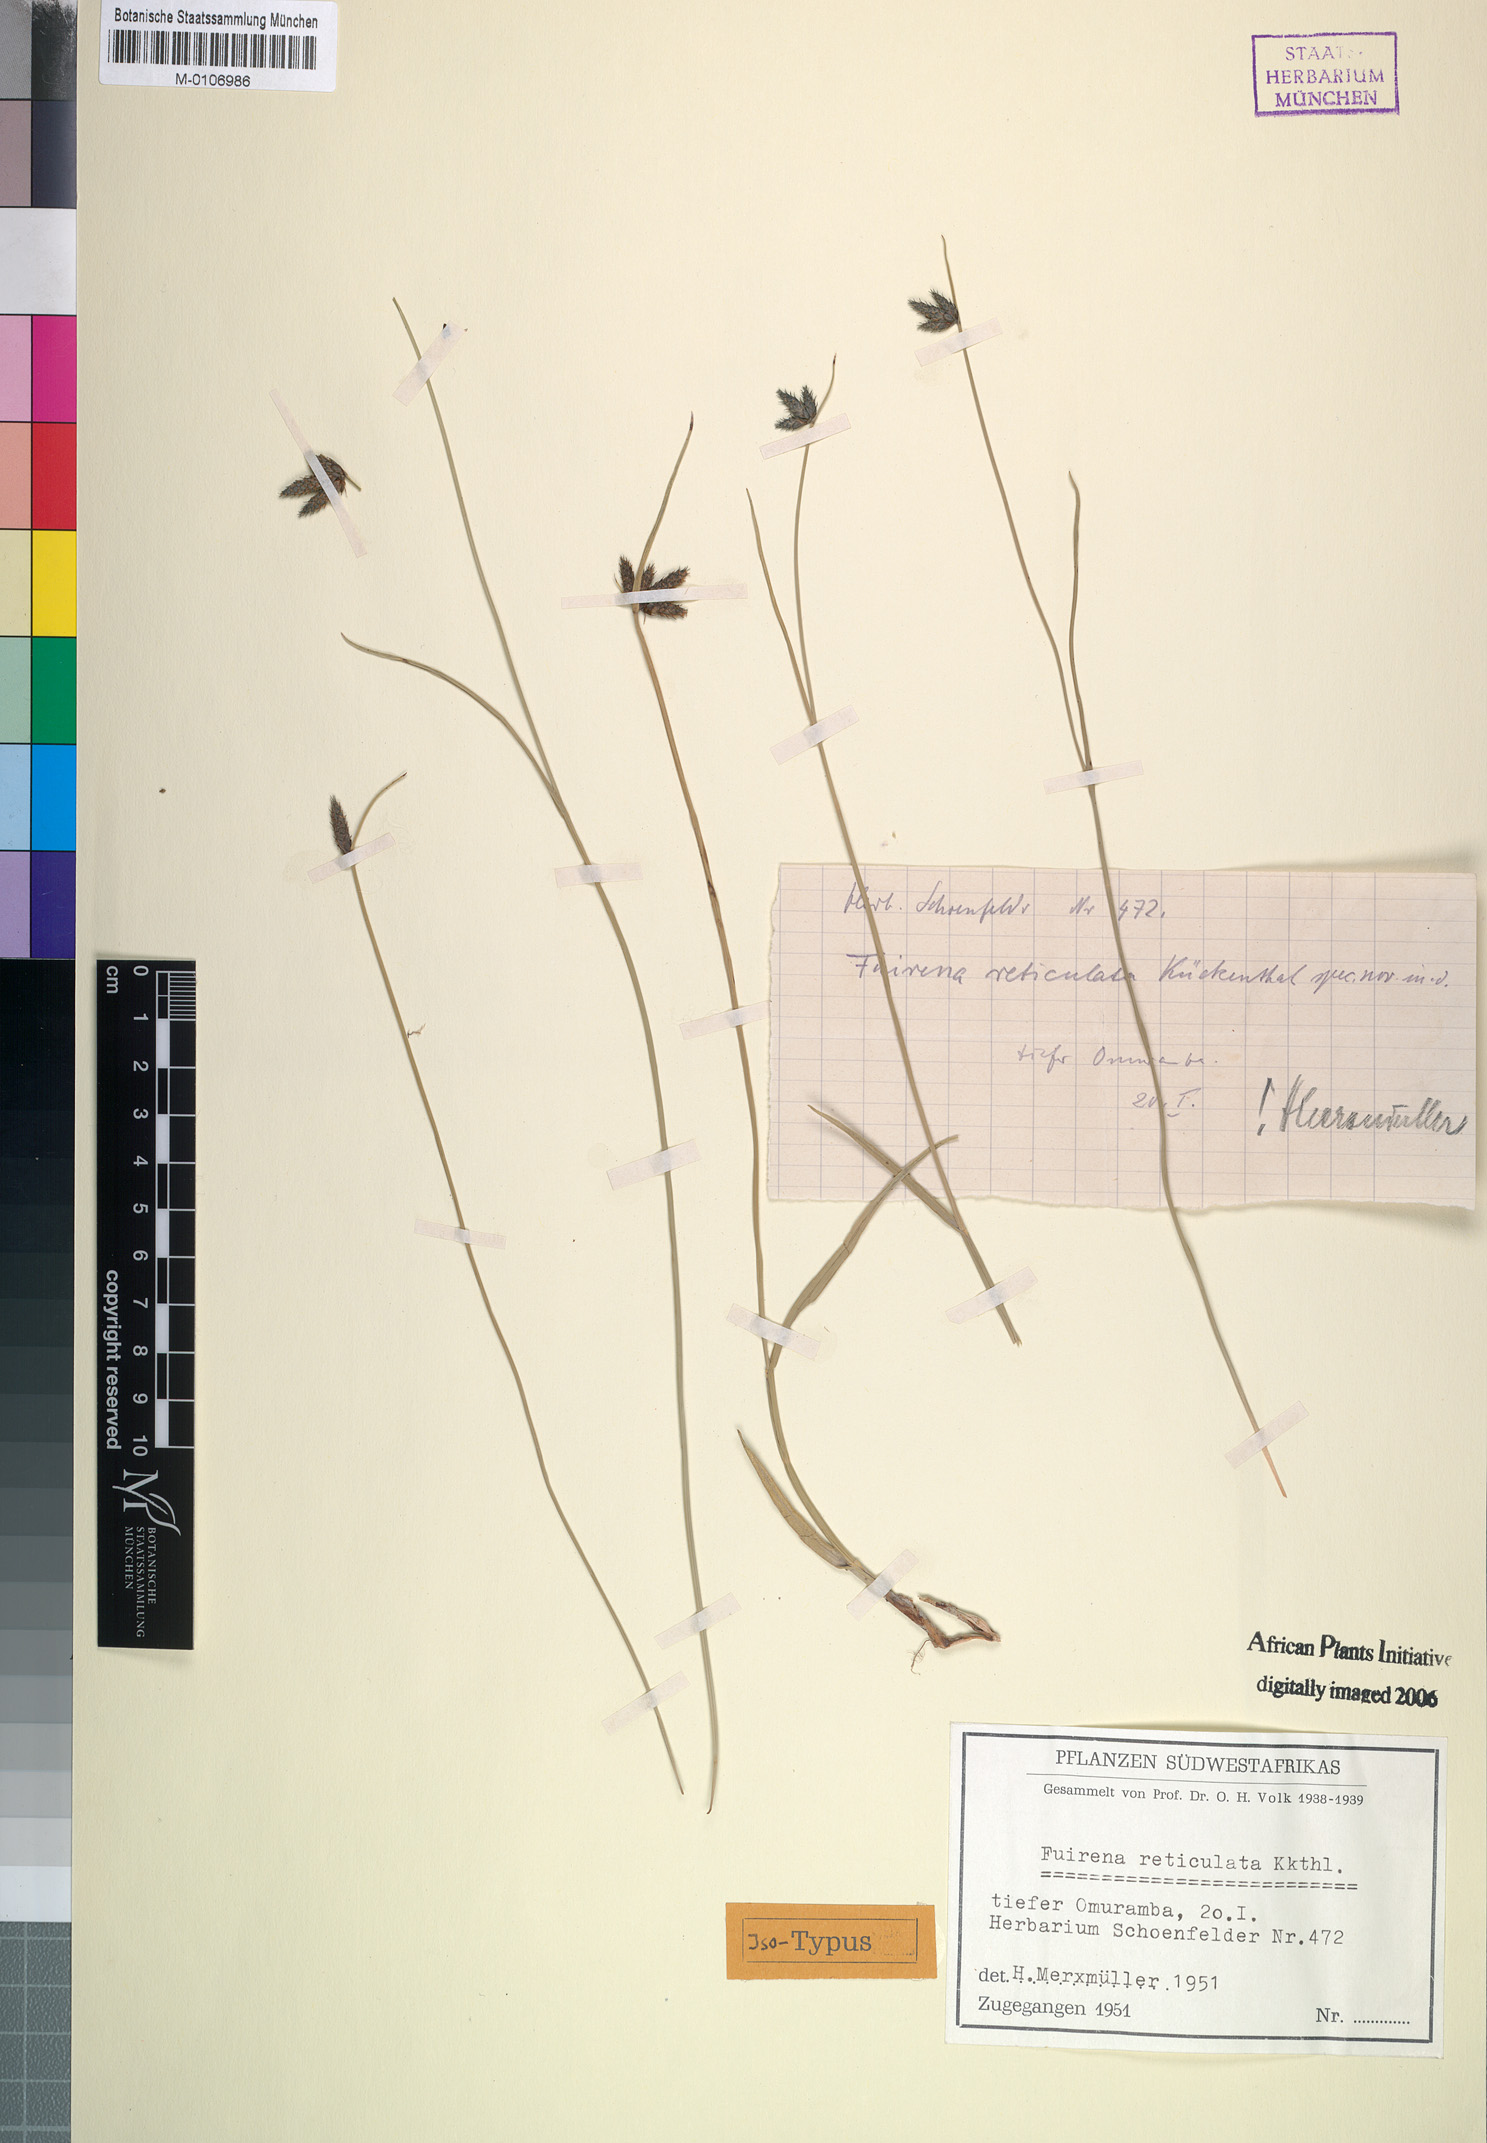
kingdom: Plantae
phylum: Tracheophyta
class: Liliopsida
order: Poales
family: Cyperaceae
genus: Fuirena
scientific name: Fuirena coerulescens
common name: Blue umbrella-sedge
